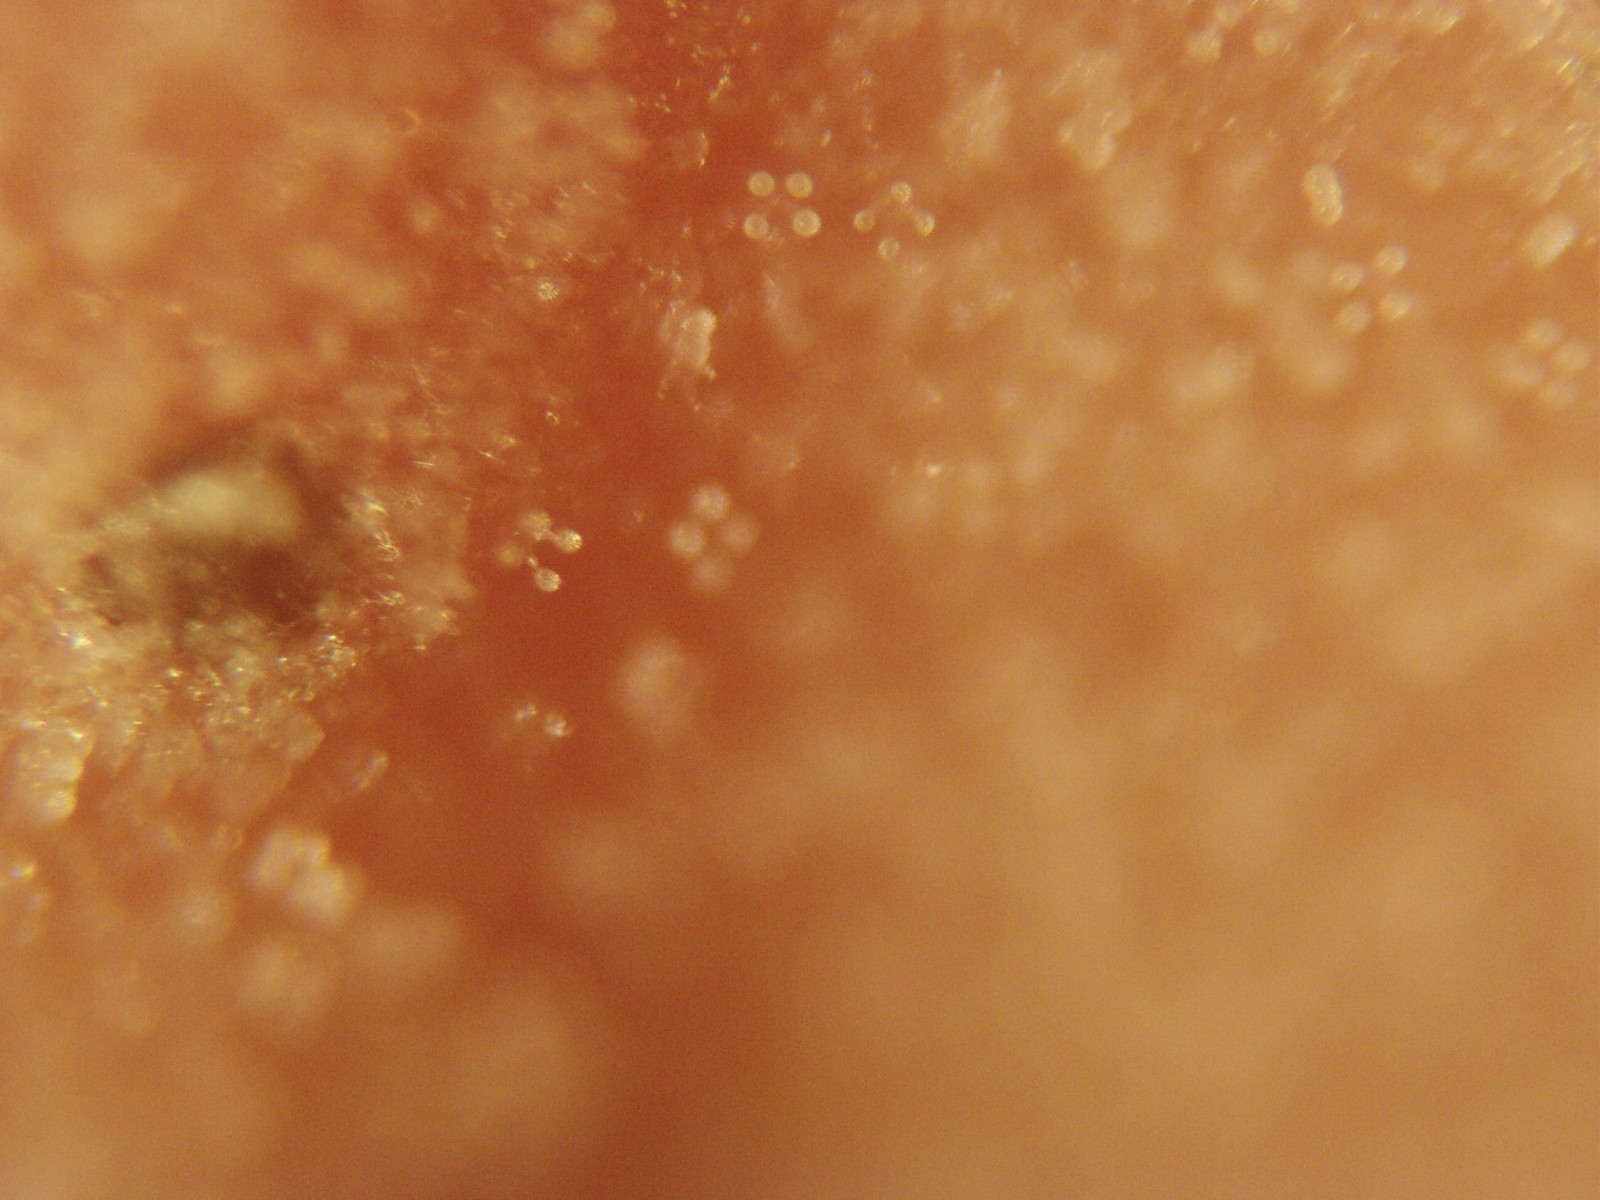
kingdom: Fungi
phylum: Basidiomycota
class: Agaricomycetes
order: Russulales
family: Stereaceae
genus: Aleurodiscus
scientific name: Aleurodiscus amorphus
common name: orange skiveskorpe
